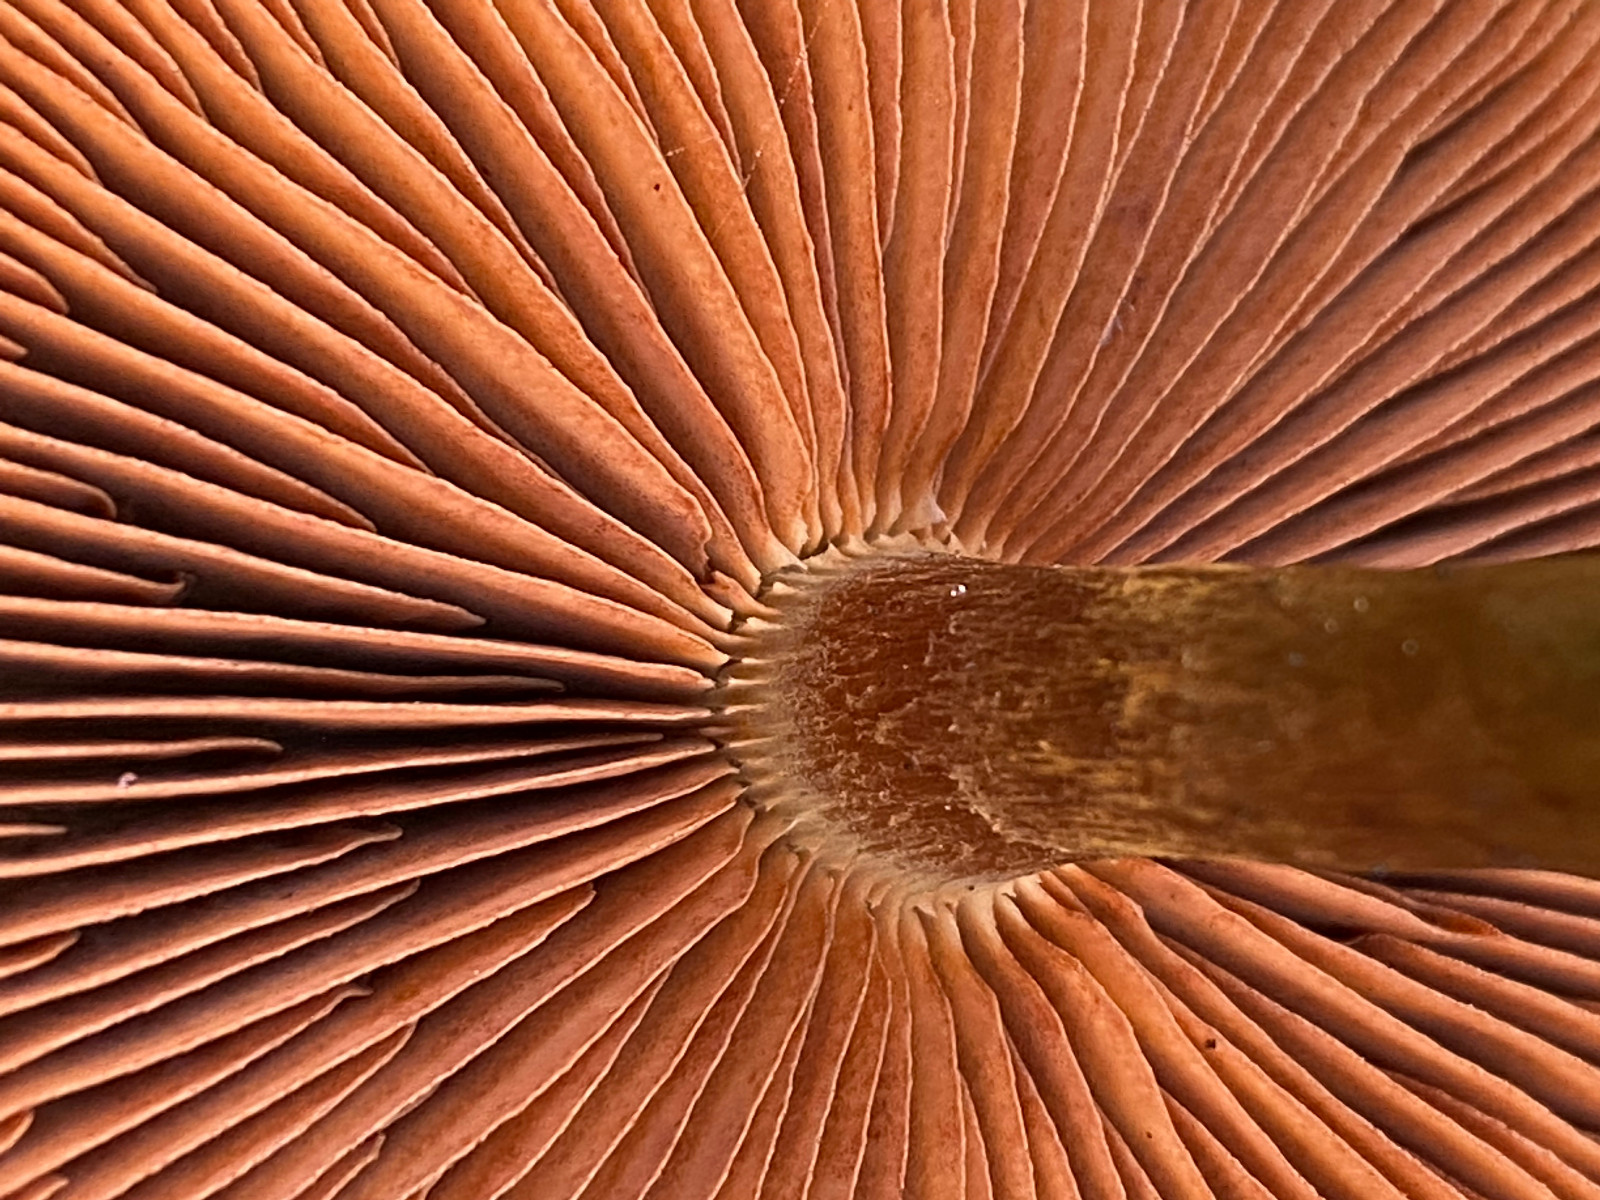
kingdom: Fungi
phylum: Basidiomycota
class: Agaricomycetes
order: Agaricales
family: Cortinariaceae
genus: Cortinarius
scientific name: Cortinarius
